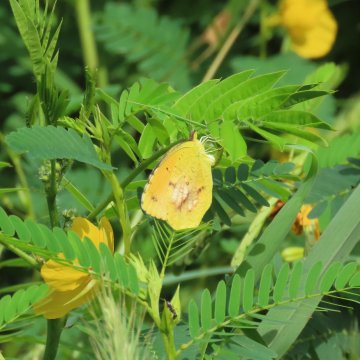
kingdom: Animalia
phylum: Arthropoda
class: Insecta
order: Lepidoptera
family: Pieridae
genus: Abaeis
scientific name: Abaeis nicippe
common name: Sleepy Orange
